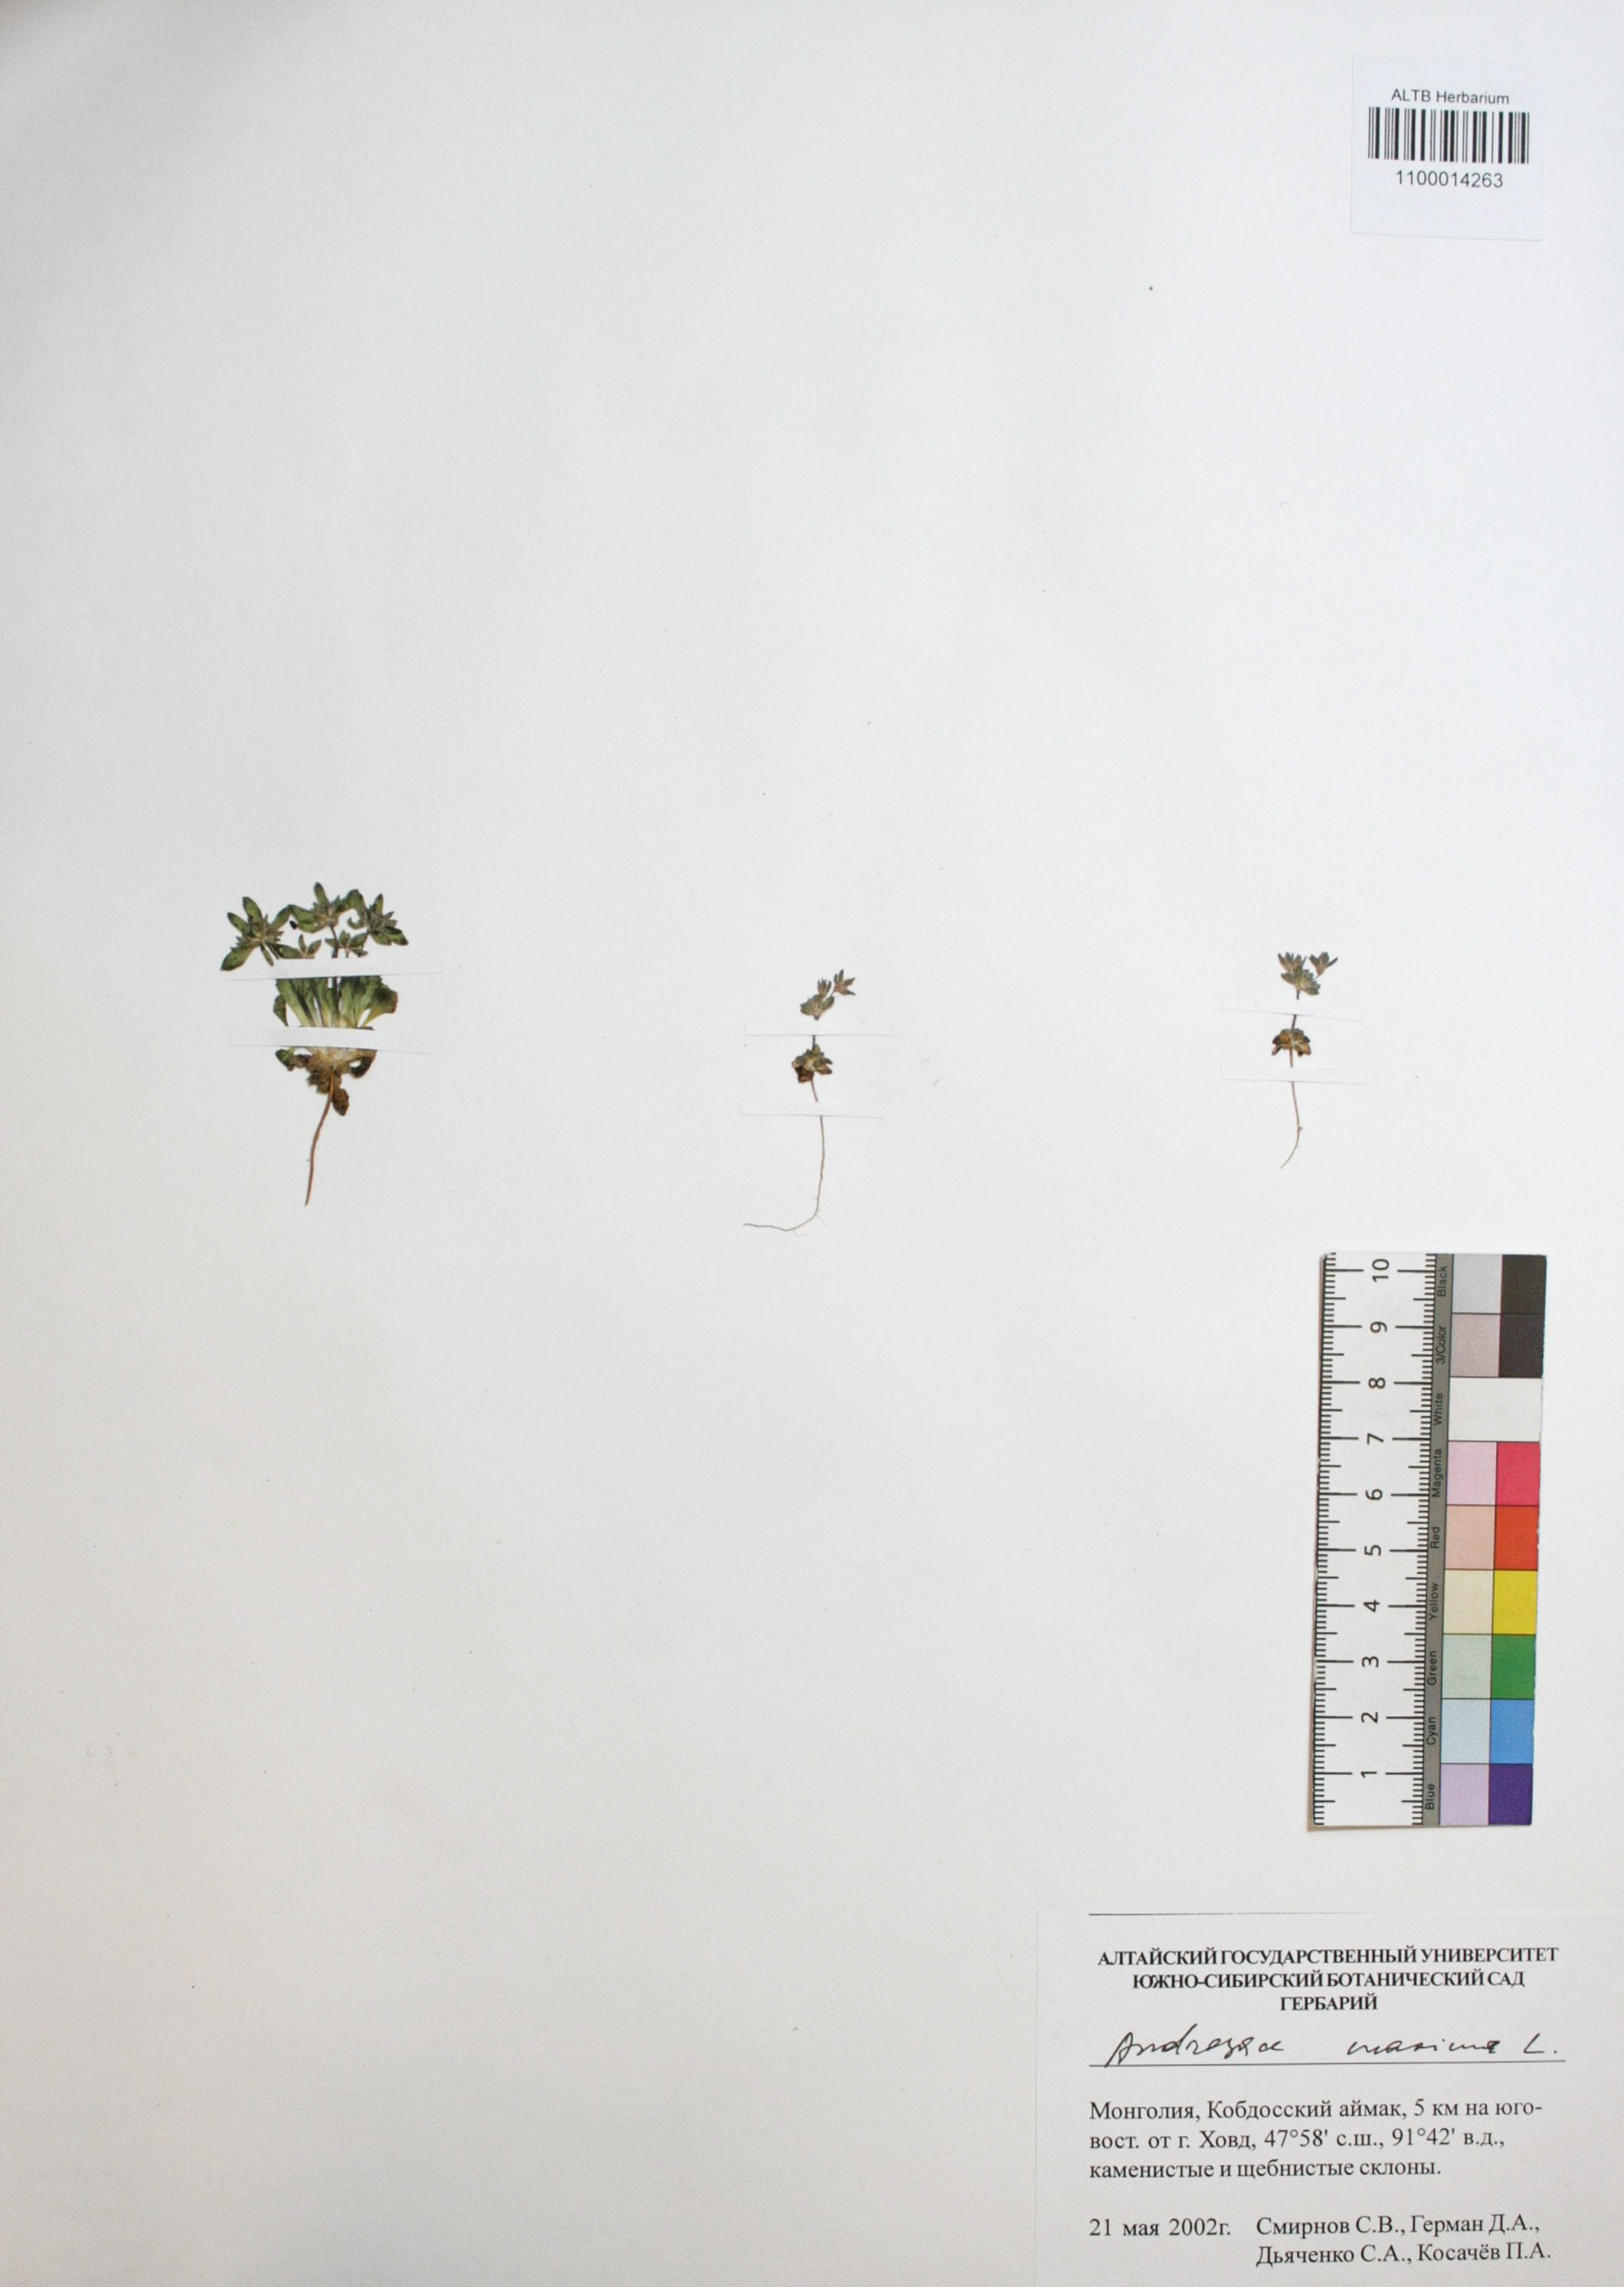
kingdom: Plantae
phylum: Tracheophyta
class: Magnoliopsida
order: Ericales
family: Primulaceae
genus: Androsace
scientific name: Androsace maxima
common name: Annual androsace
